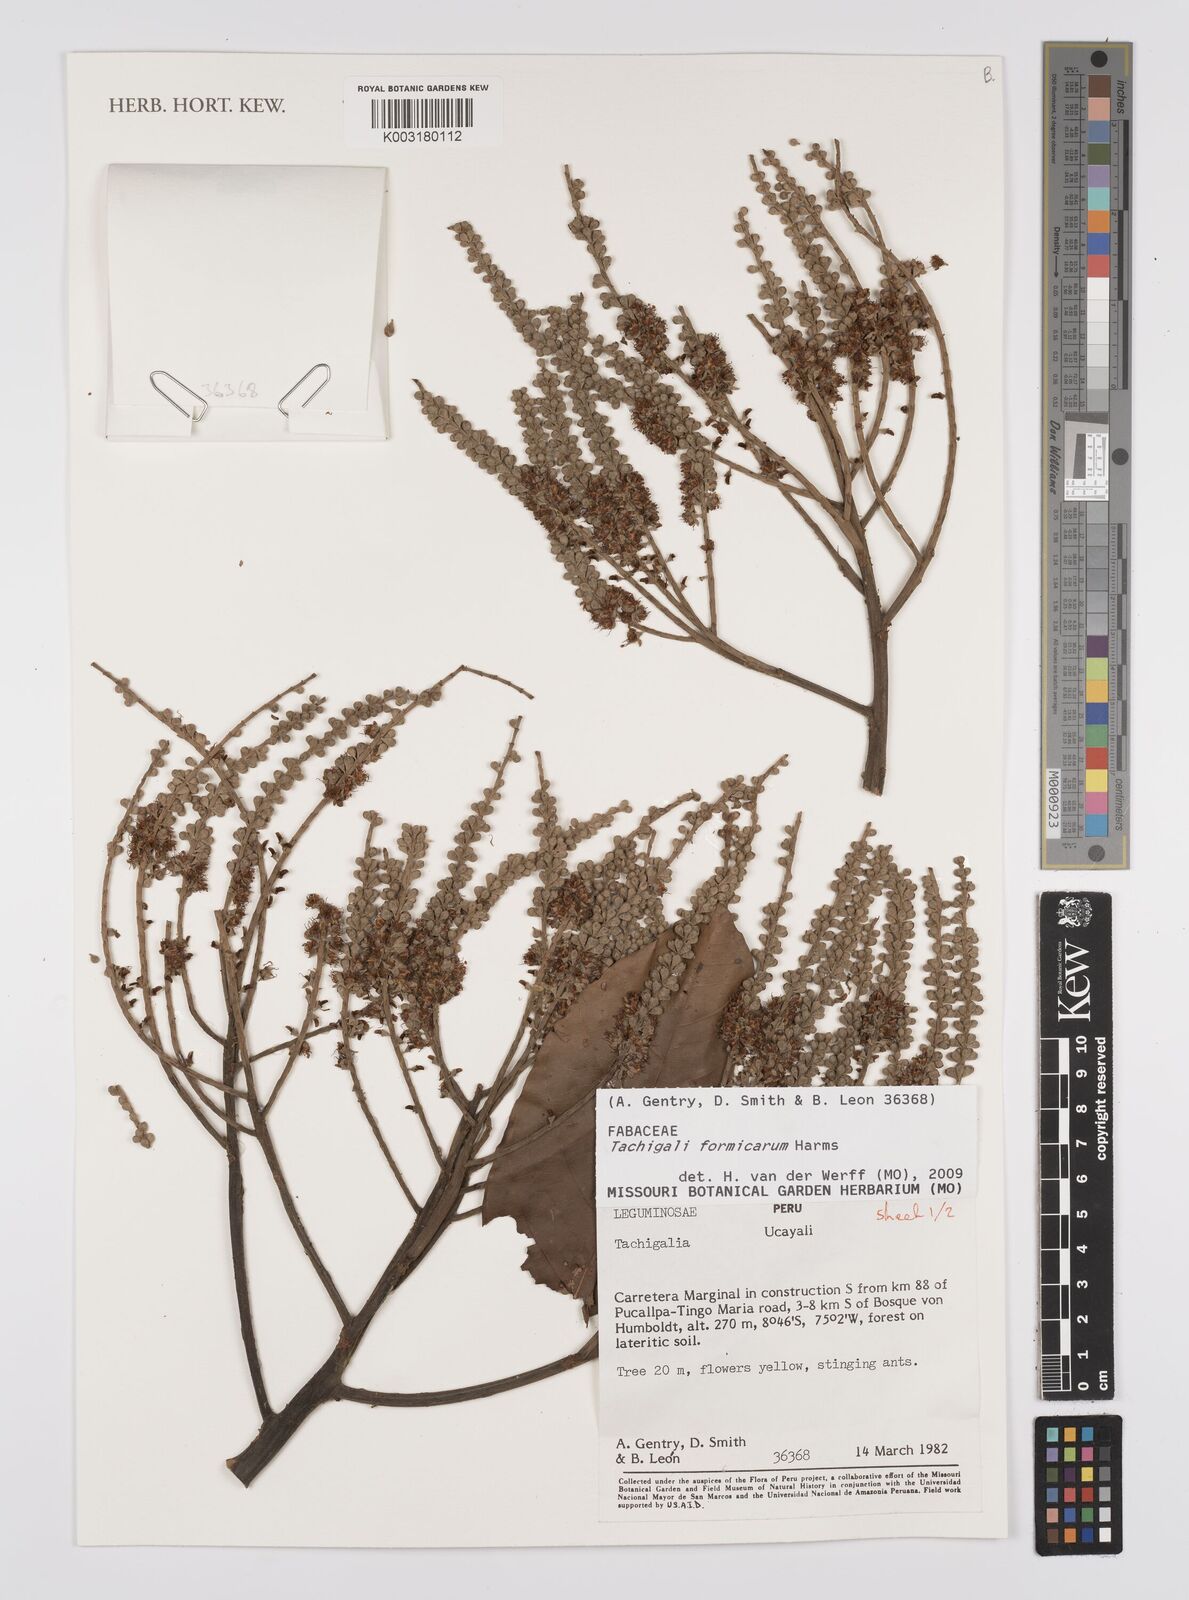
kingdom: Plantae
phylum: Tracheophyta
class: Magnoliopsida
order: Fabales
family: Fabaceae
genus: Tachigali
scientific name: Tachigali formicarum
